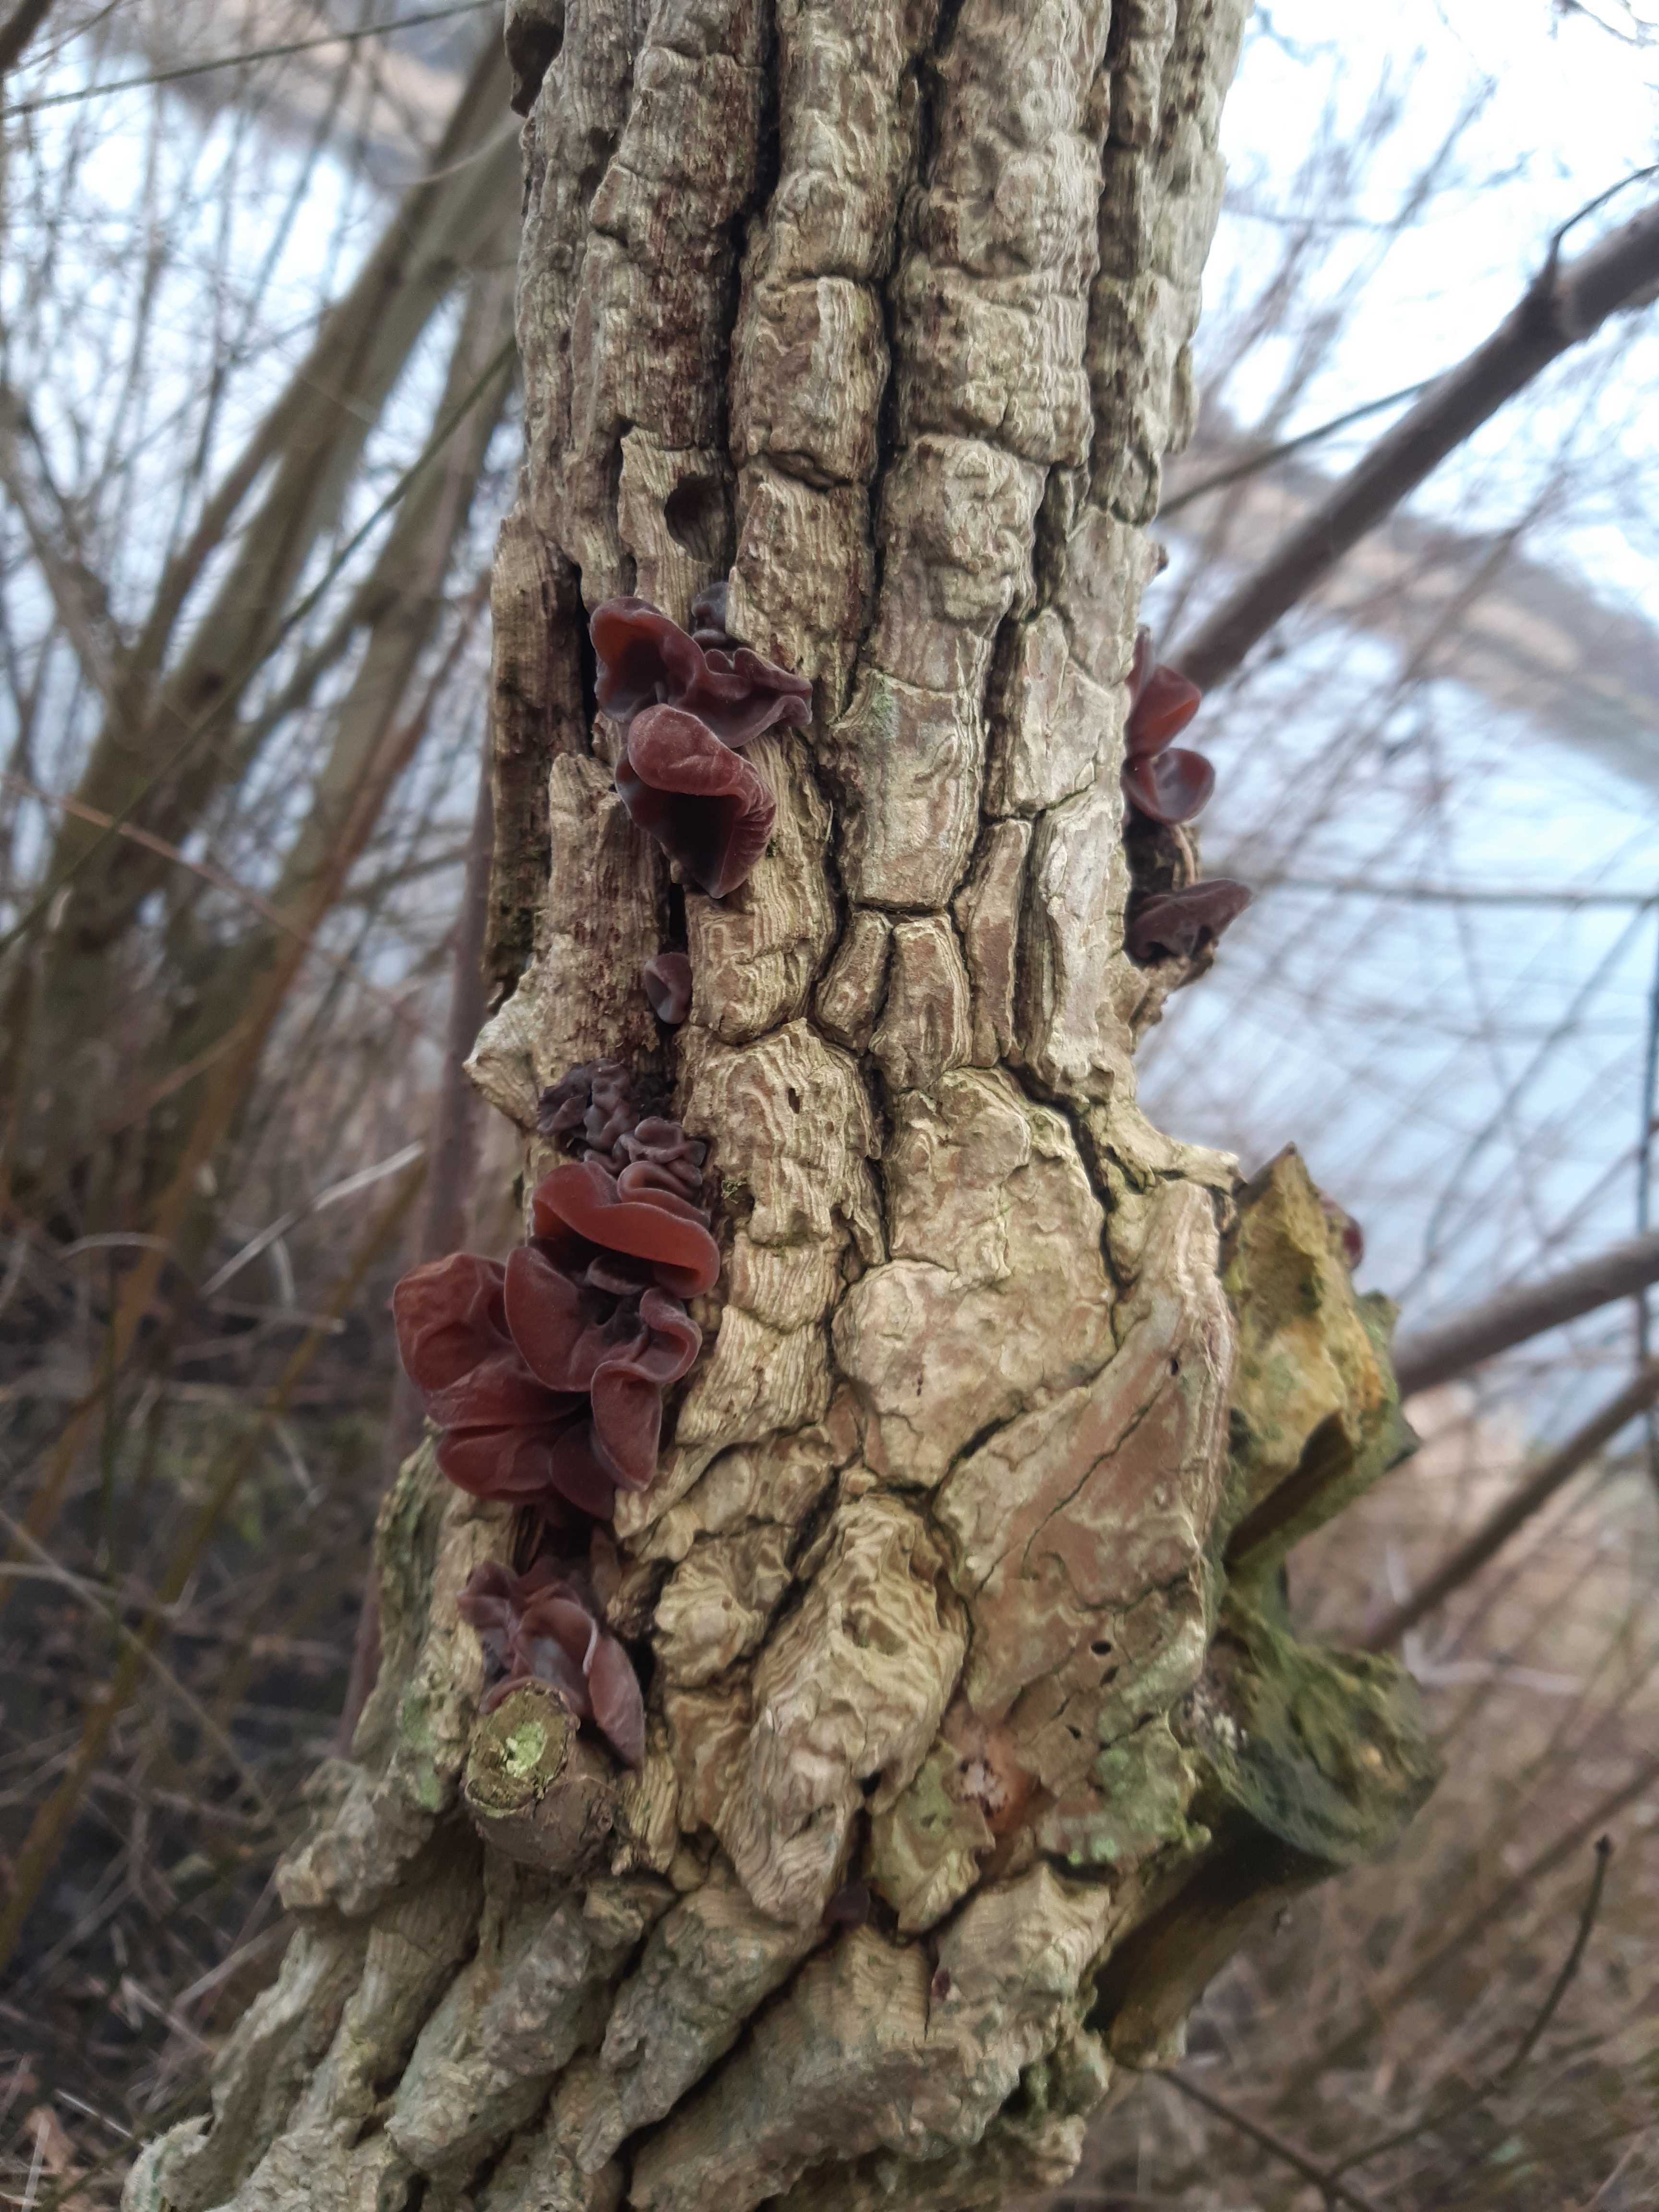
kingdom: Fungi
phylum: Basidiomycota
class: Agaricomycetes
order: Auriculariales
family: Auriculariaceae
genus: Auricularia
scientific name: Auricularia auricula-judae
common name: almindelig judasøre
